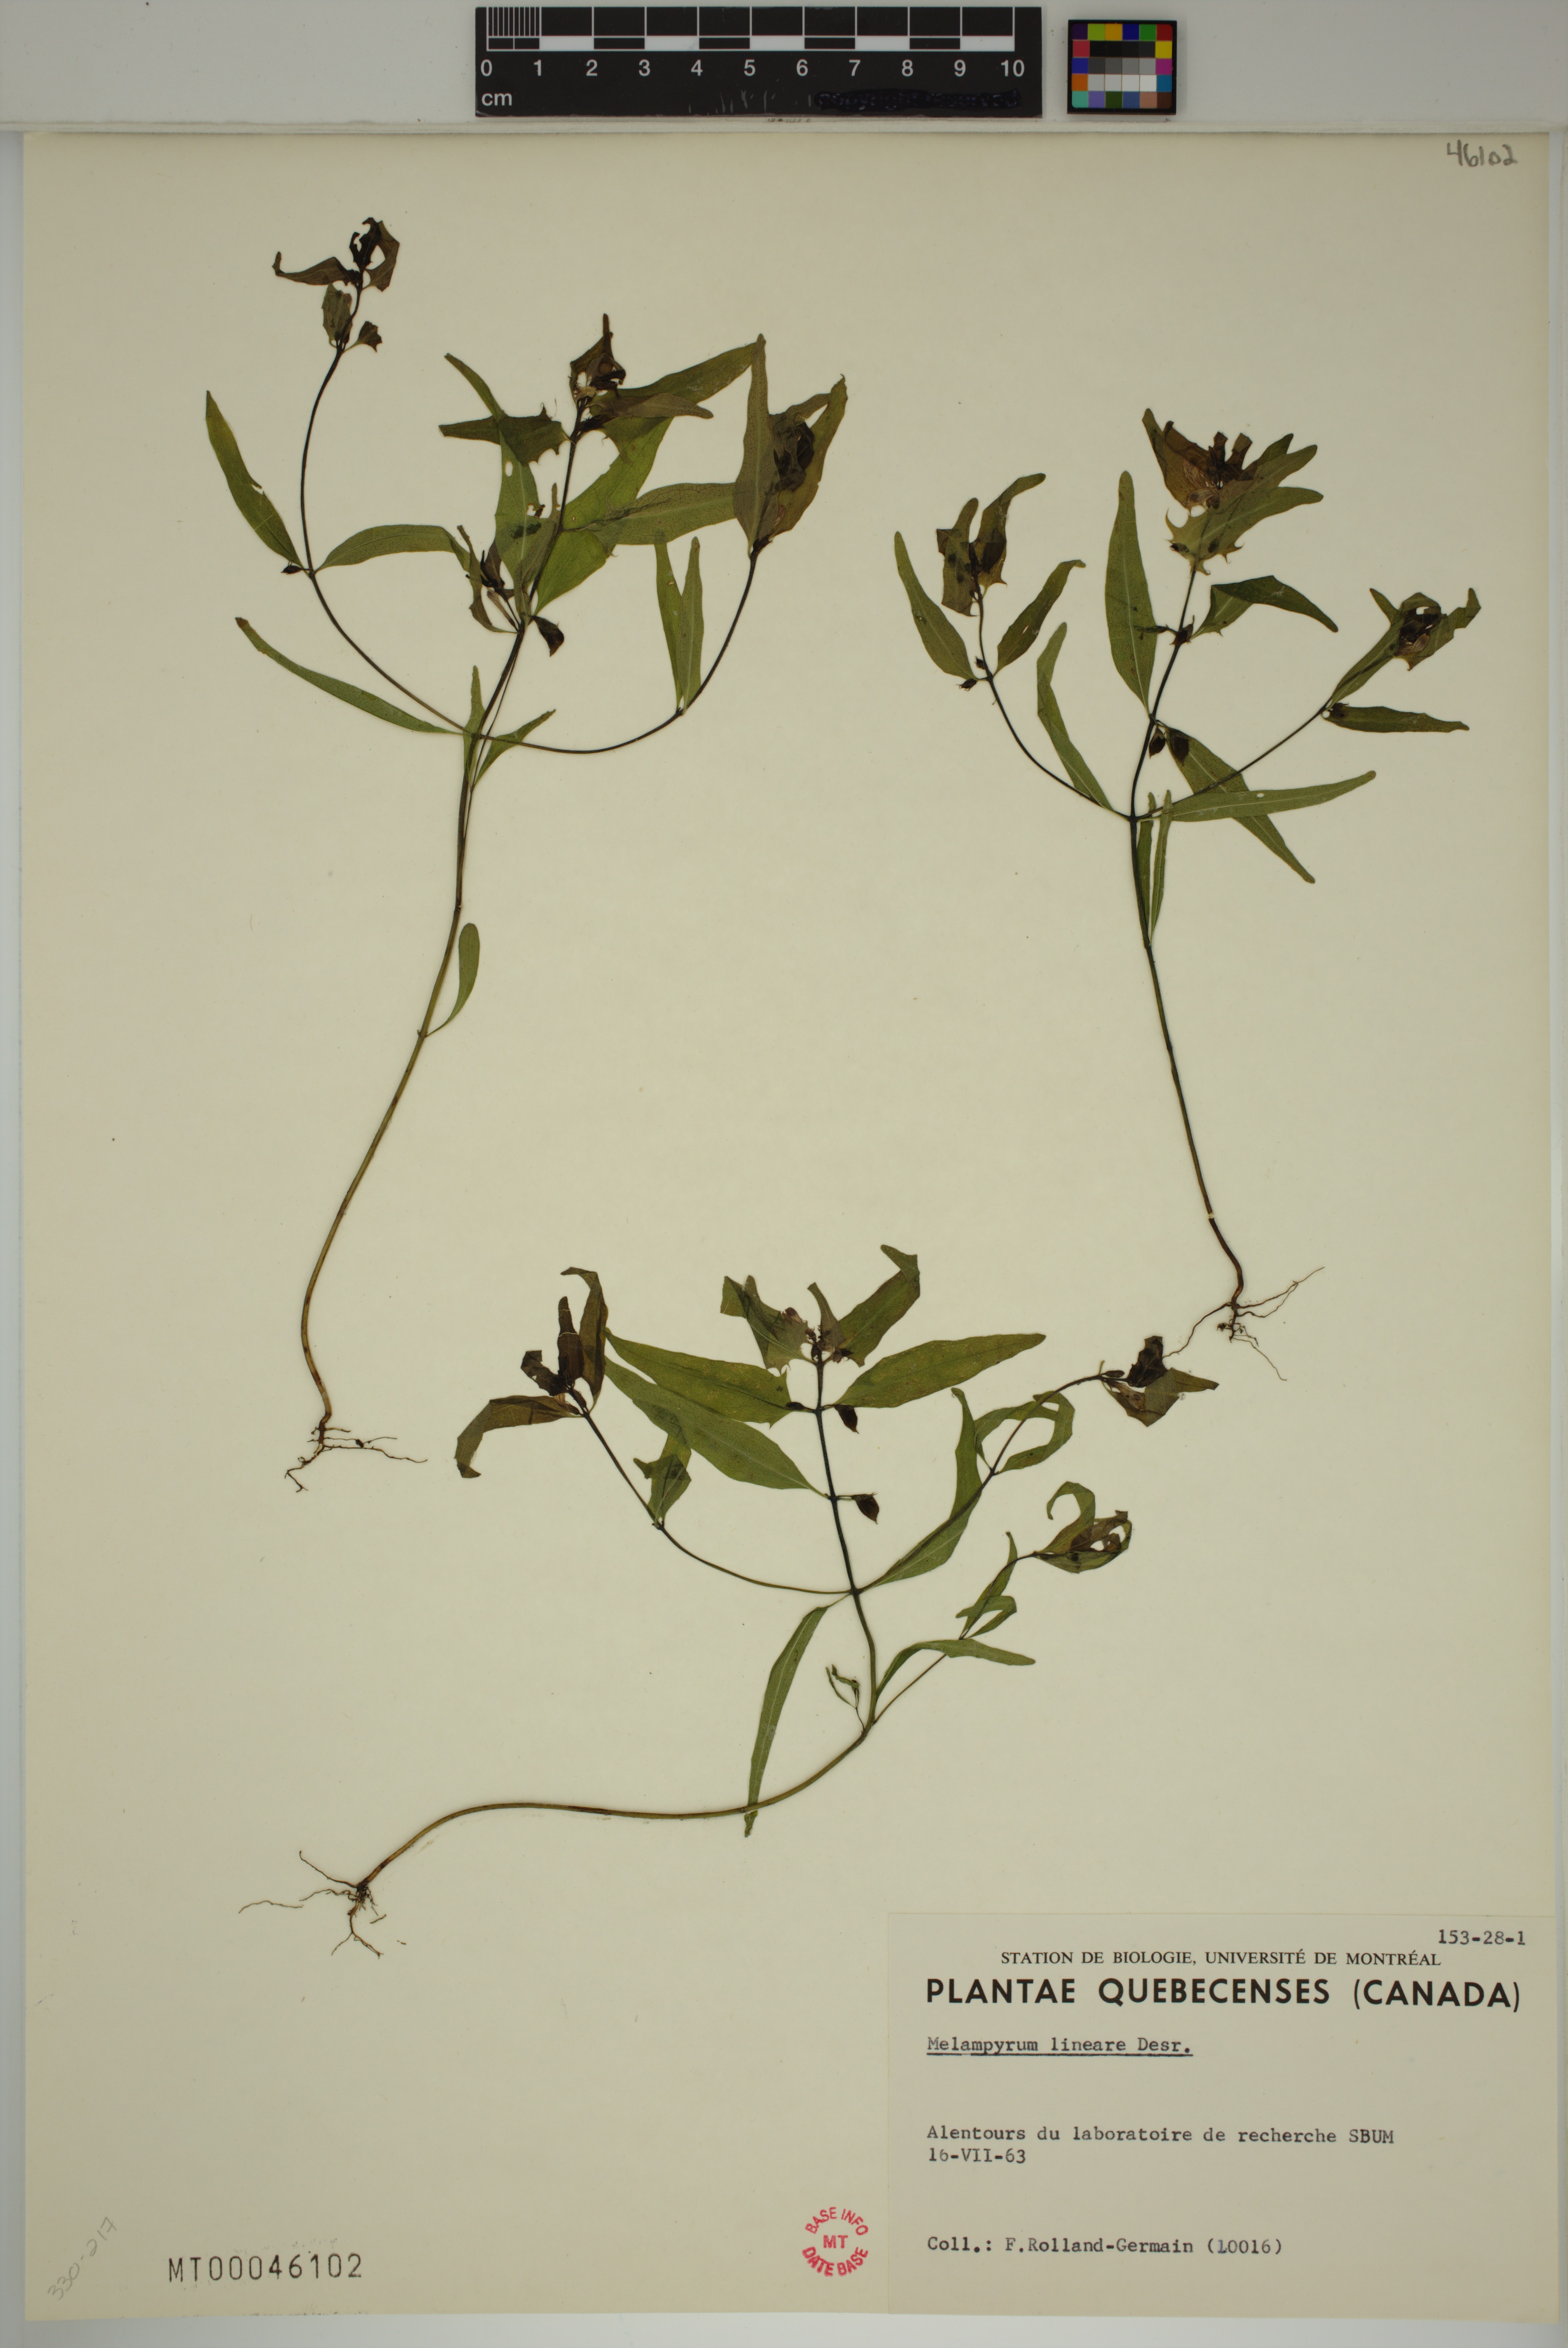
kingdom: Plantae
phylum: Tracheophyta
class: Magnoliopsida
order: Lamiales
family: Orobanchaceae
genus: Melampyrum
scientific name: Melampyrum lineare
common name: American cow-wheat
